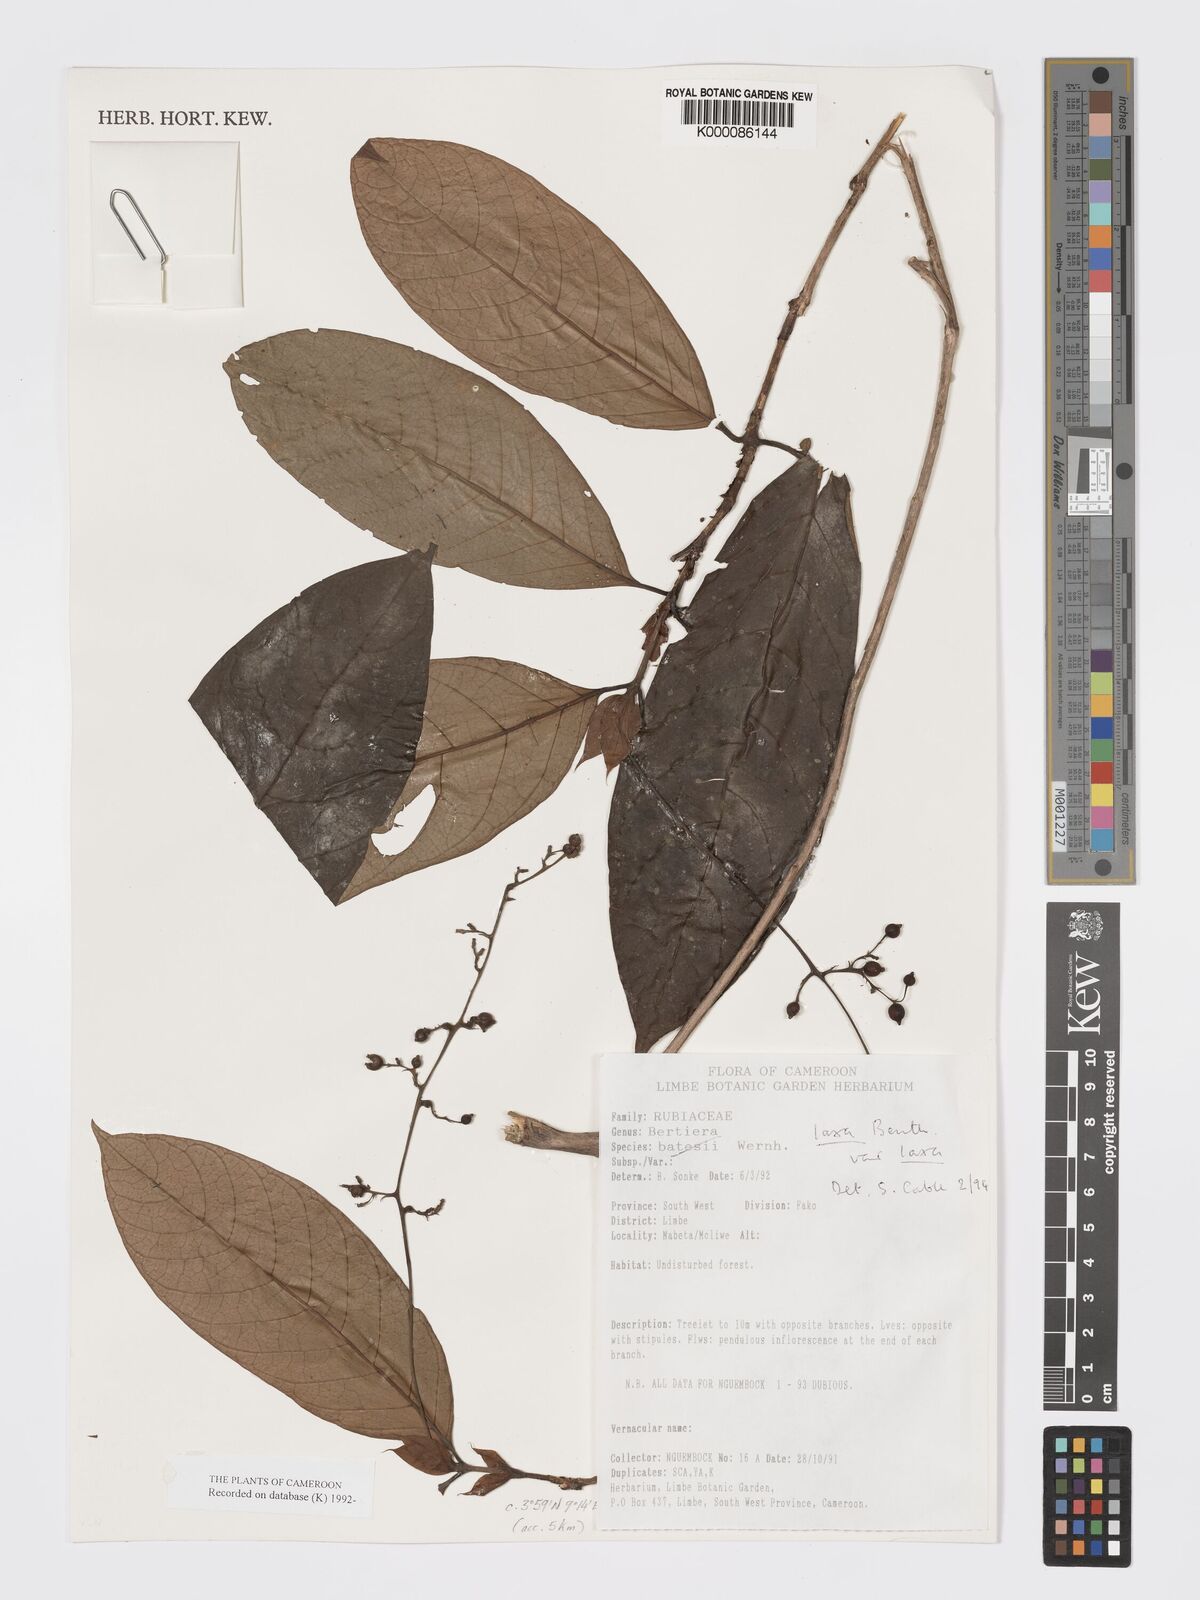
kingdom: Plantae
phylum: Tracheophyta
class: Magnoliopsida
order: Gentianales
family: Rubiaceae
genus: Bertiera
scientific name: Bertiera laxa
